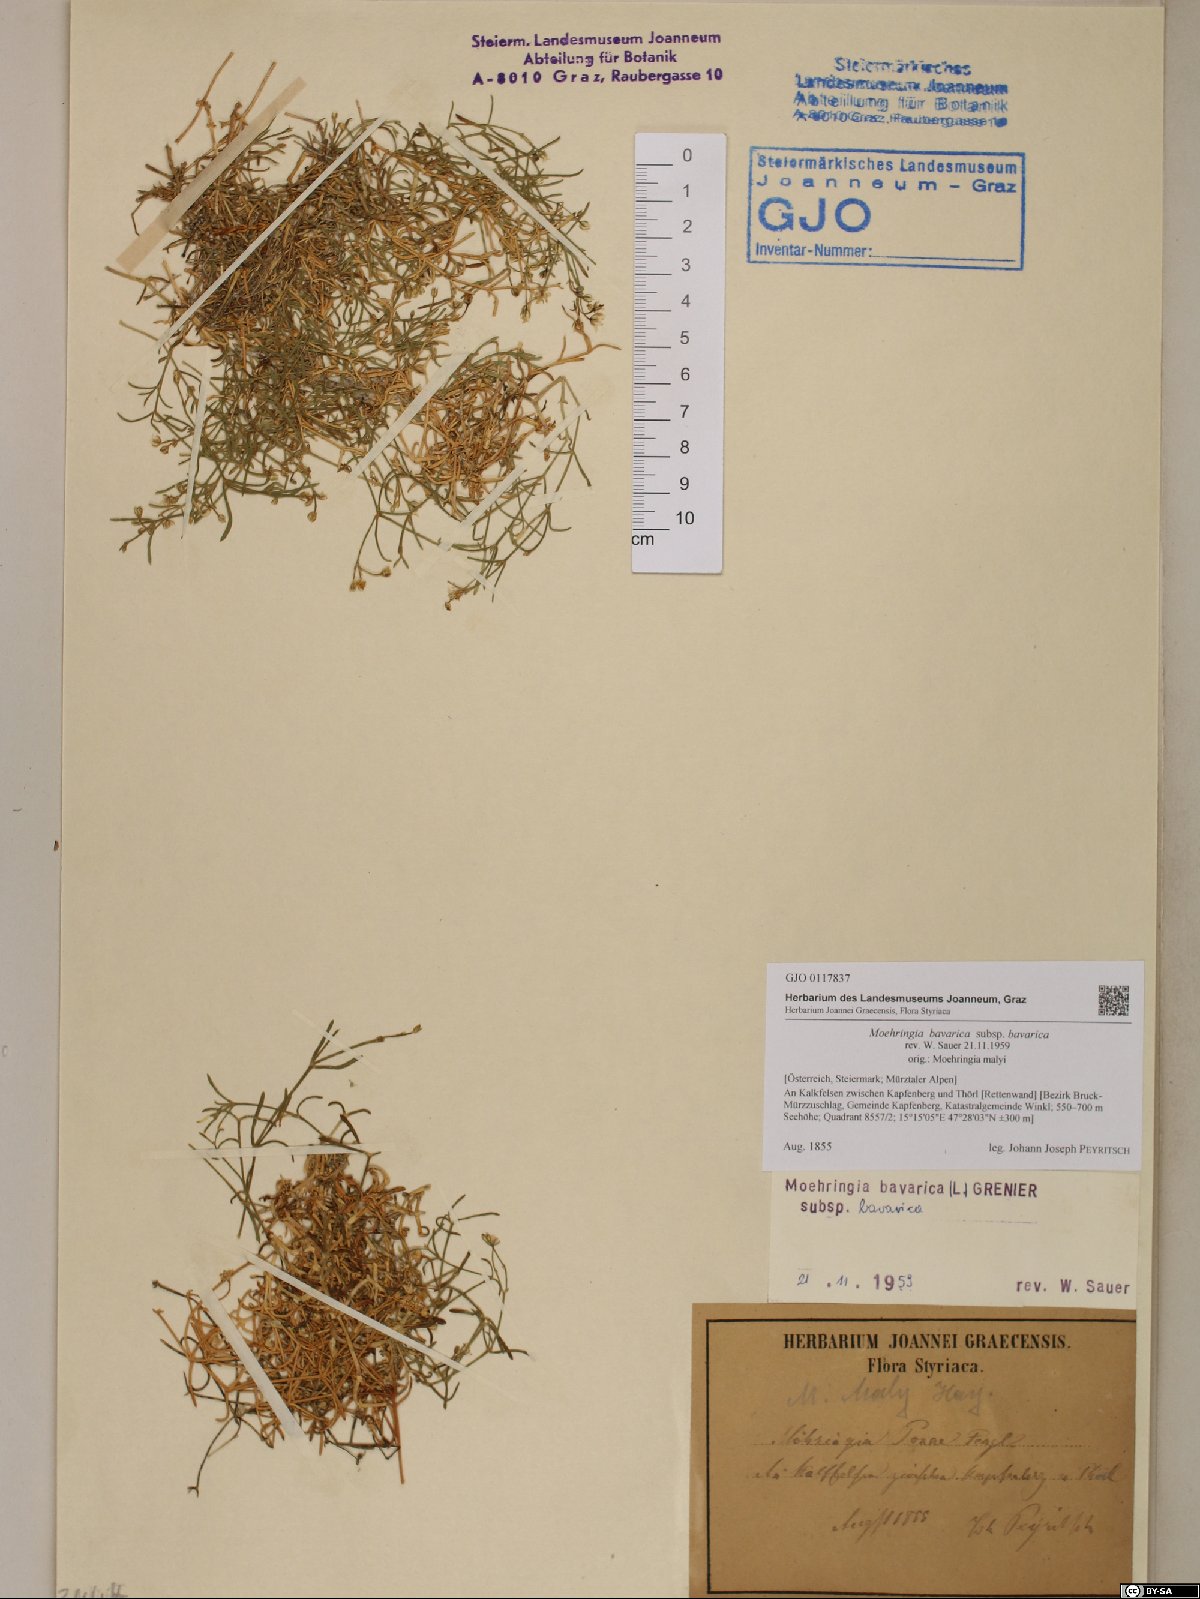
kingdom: Plantae
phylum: Tracheophyta
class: Magnoliopsida
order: Caryophyllales
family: Caryophyllaceae
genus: Moehringia
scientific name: Moehringia bavarica
